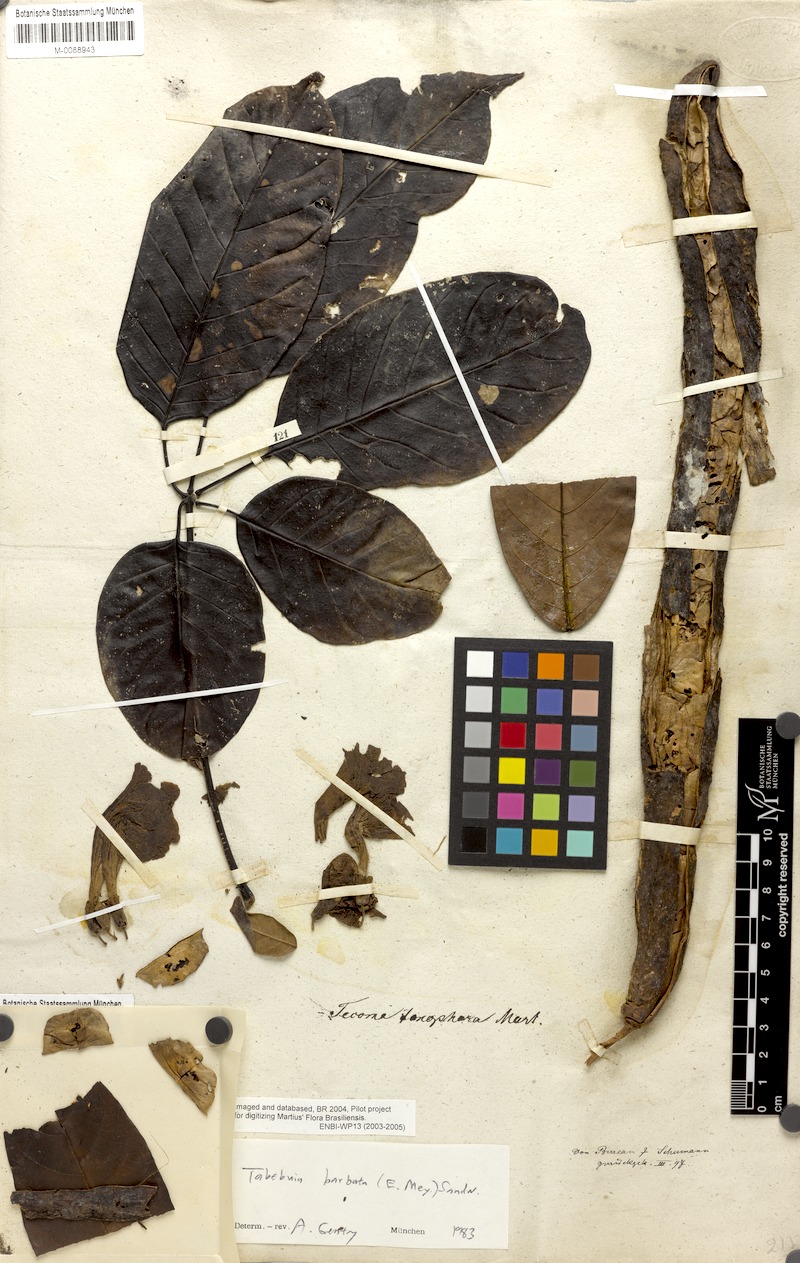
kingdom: Plantae
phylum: Tracheophyta
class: Magnoliopsida
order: Lamiales
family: Bignoniaceae
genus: Handroanthus
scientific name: Handroanthus serratifolius
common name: Yellow ipe
